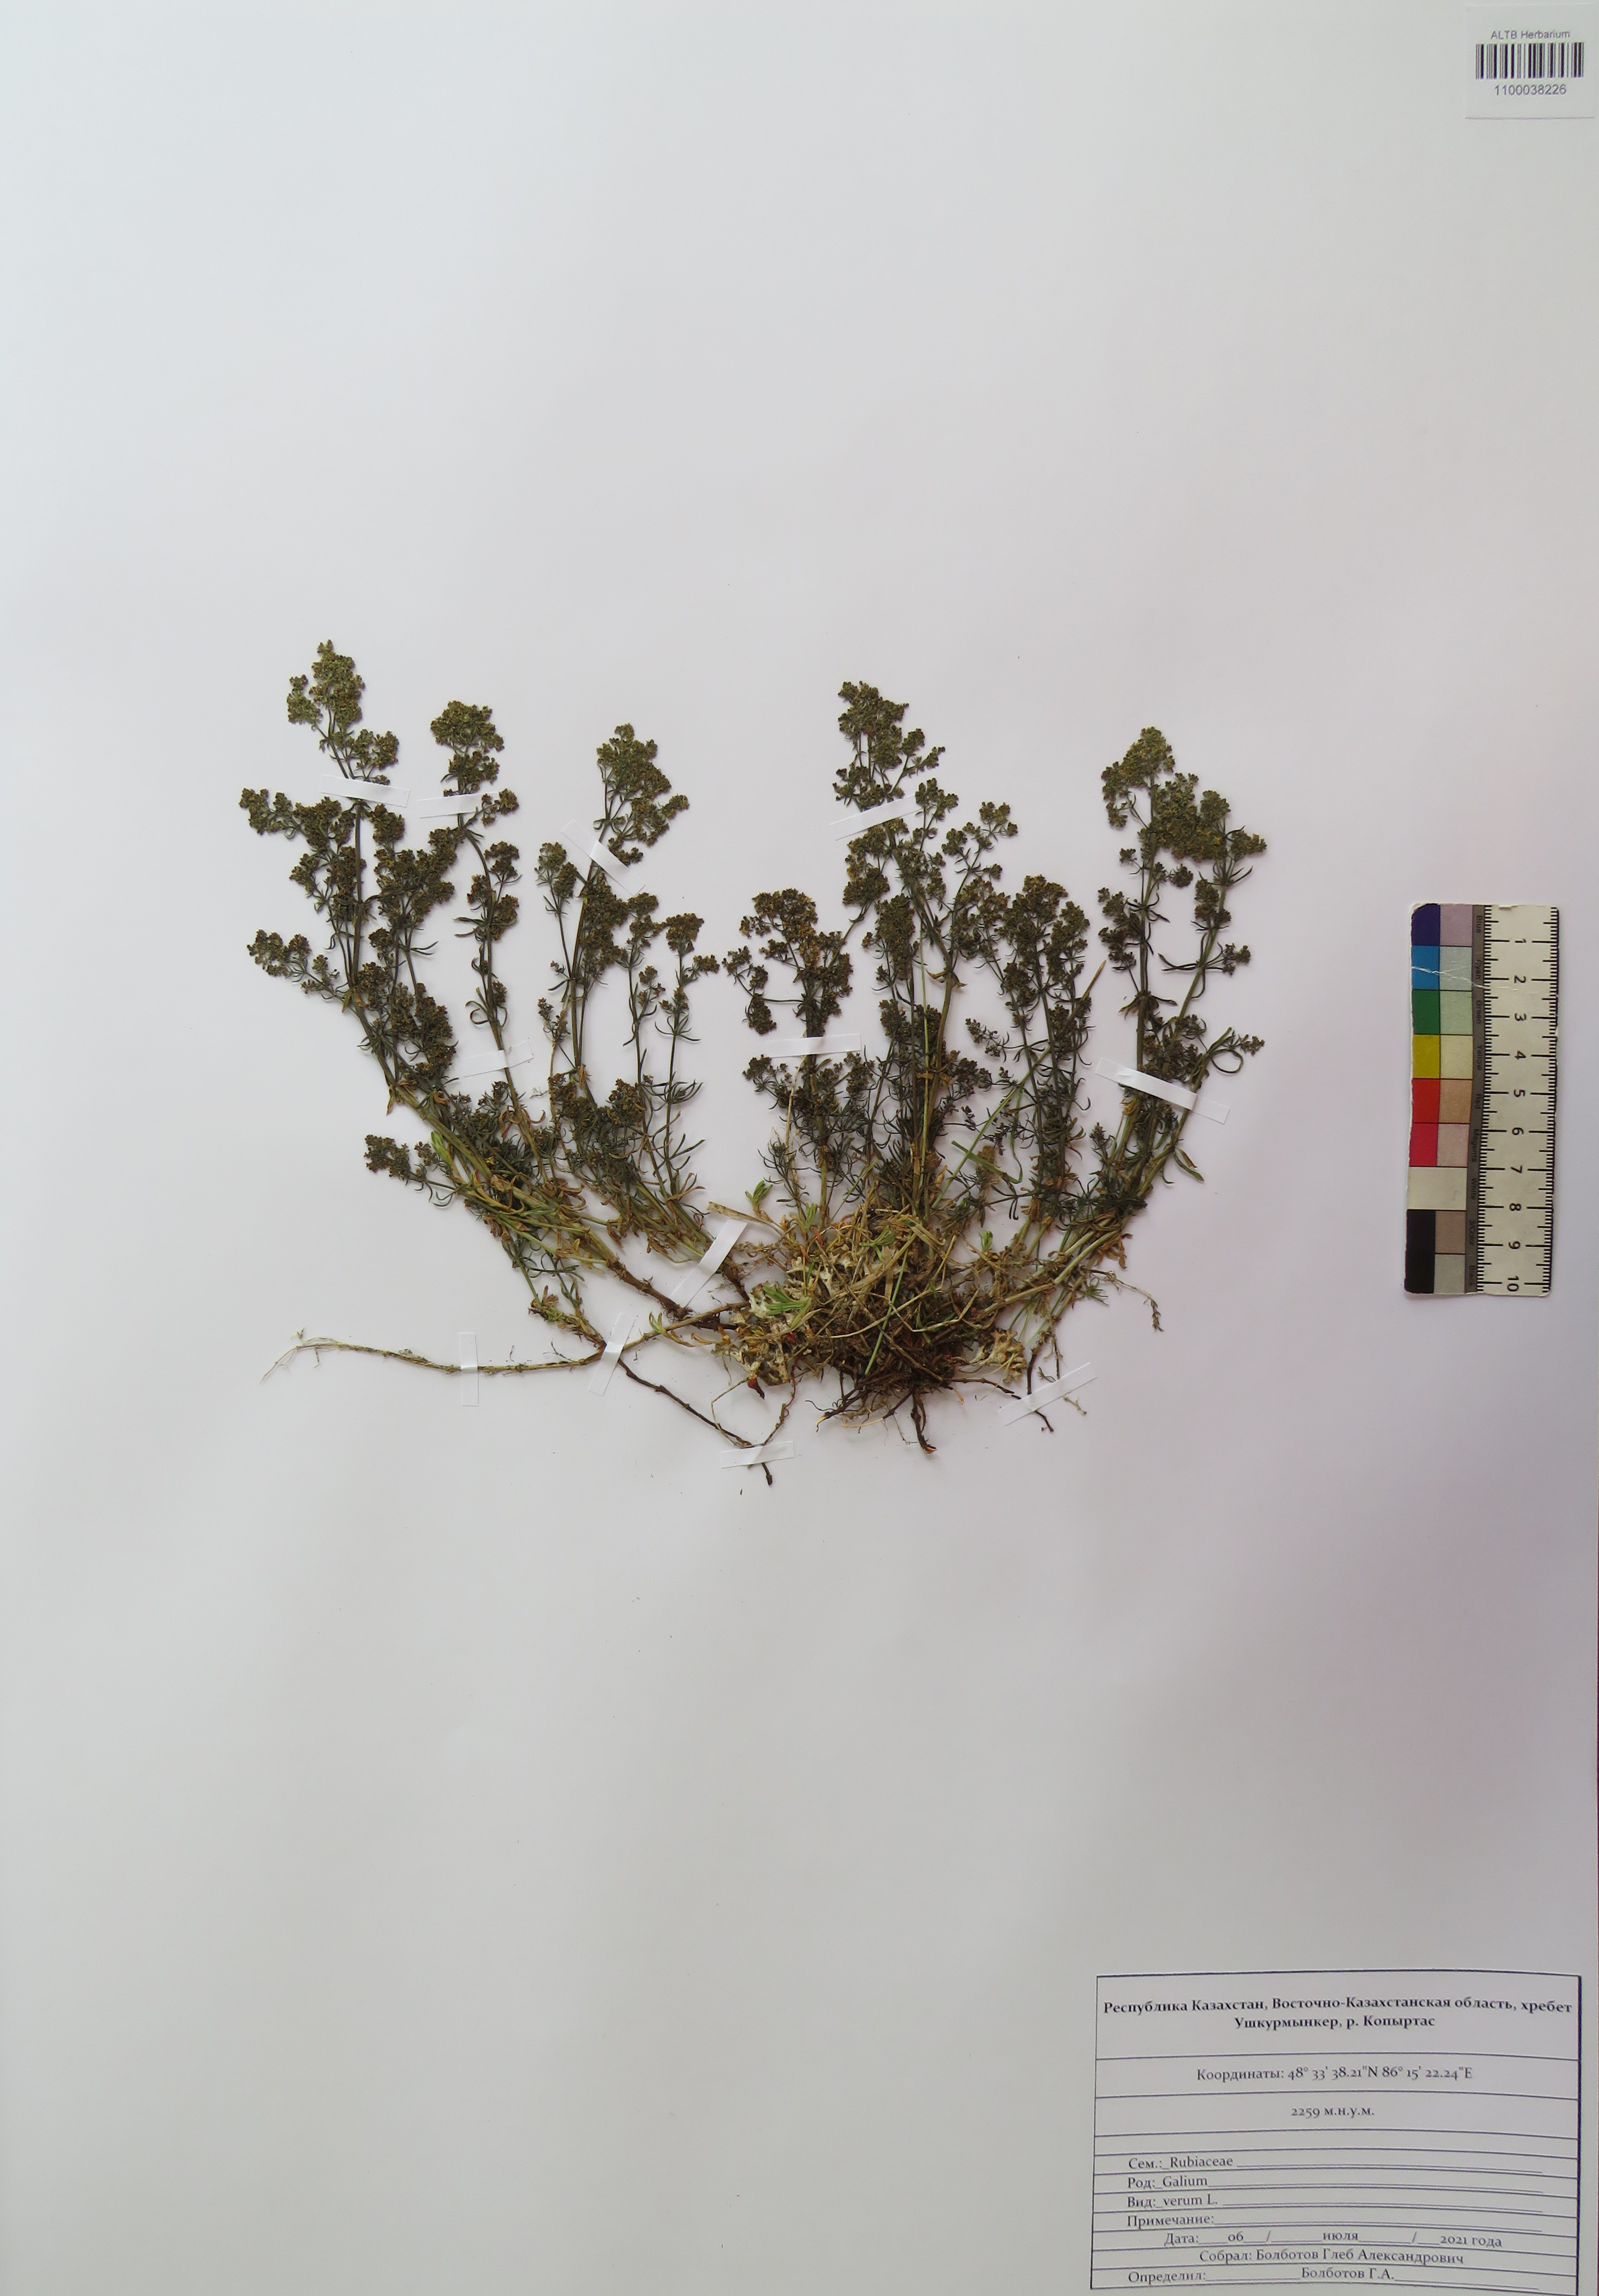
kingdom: Plantae
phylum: Tracheophyta
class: Magnoliopsida
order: Gentianales
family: Rubiaceae
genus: Galium
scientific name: Galium verum
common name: Lady's bedstraw
